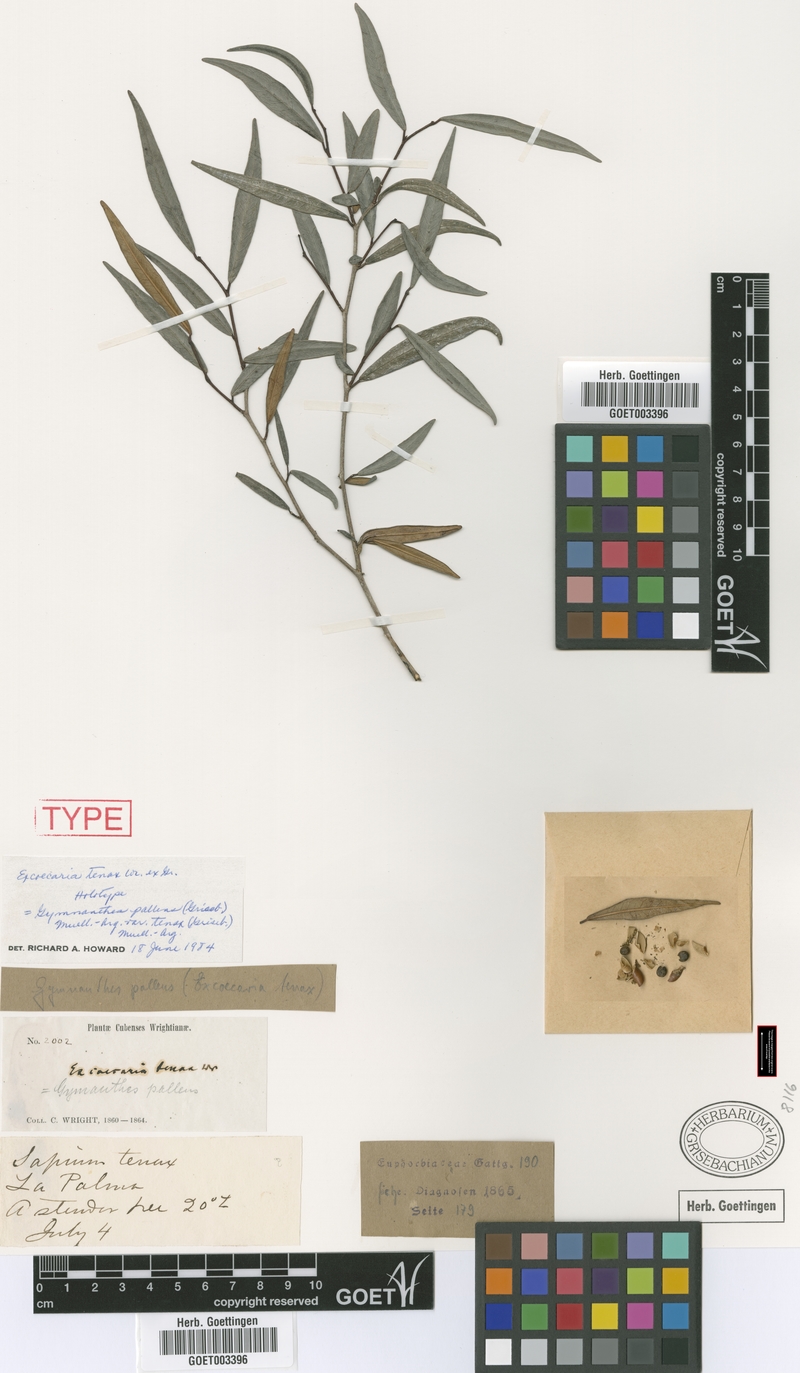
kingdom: Plantae
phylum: Tracheophyta
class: Magnoliopsida
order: Malpighiales
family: Euphorbiaceae
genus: Gymnanthes
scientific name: Gymnanthes pallens
